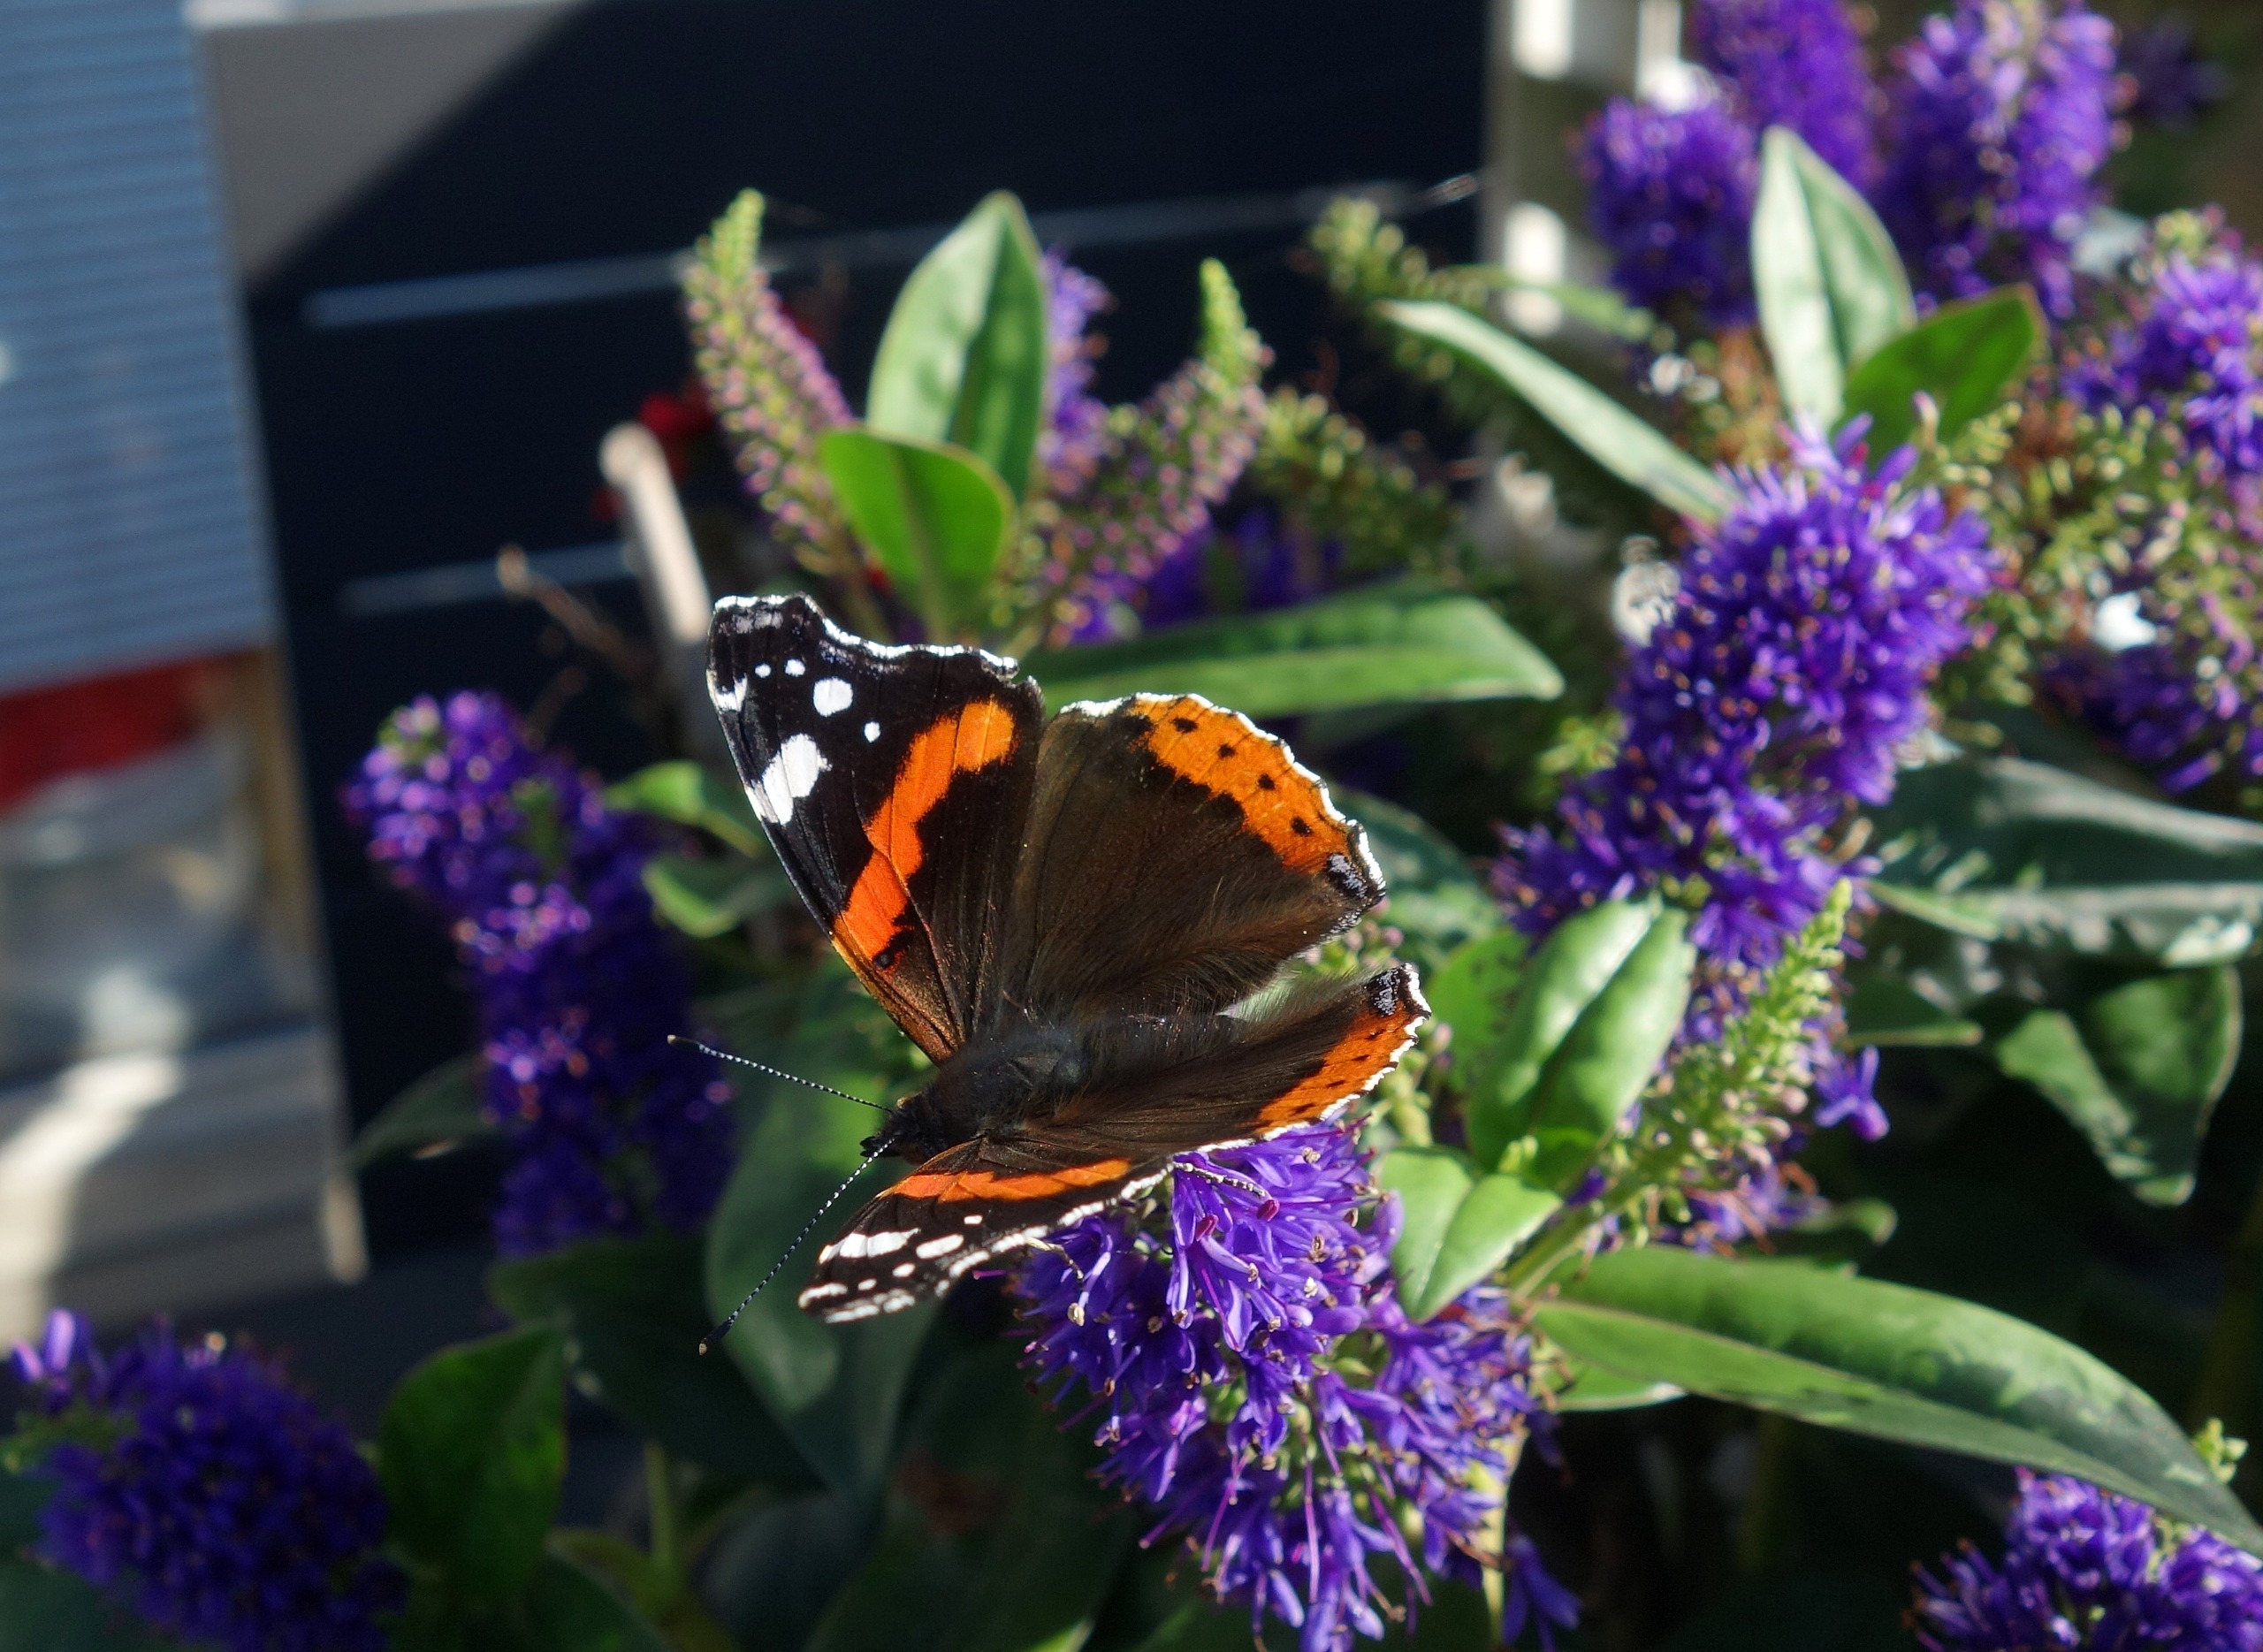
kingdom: Animalia
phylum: Arthropoda
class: Insecta
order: Lepidoptera
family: Nymphalidae
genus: Vanessa
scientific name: Vanessa atalanta
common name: Admiral
